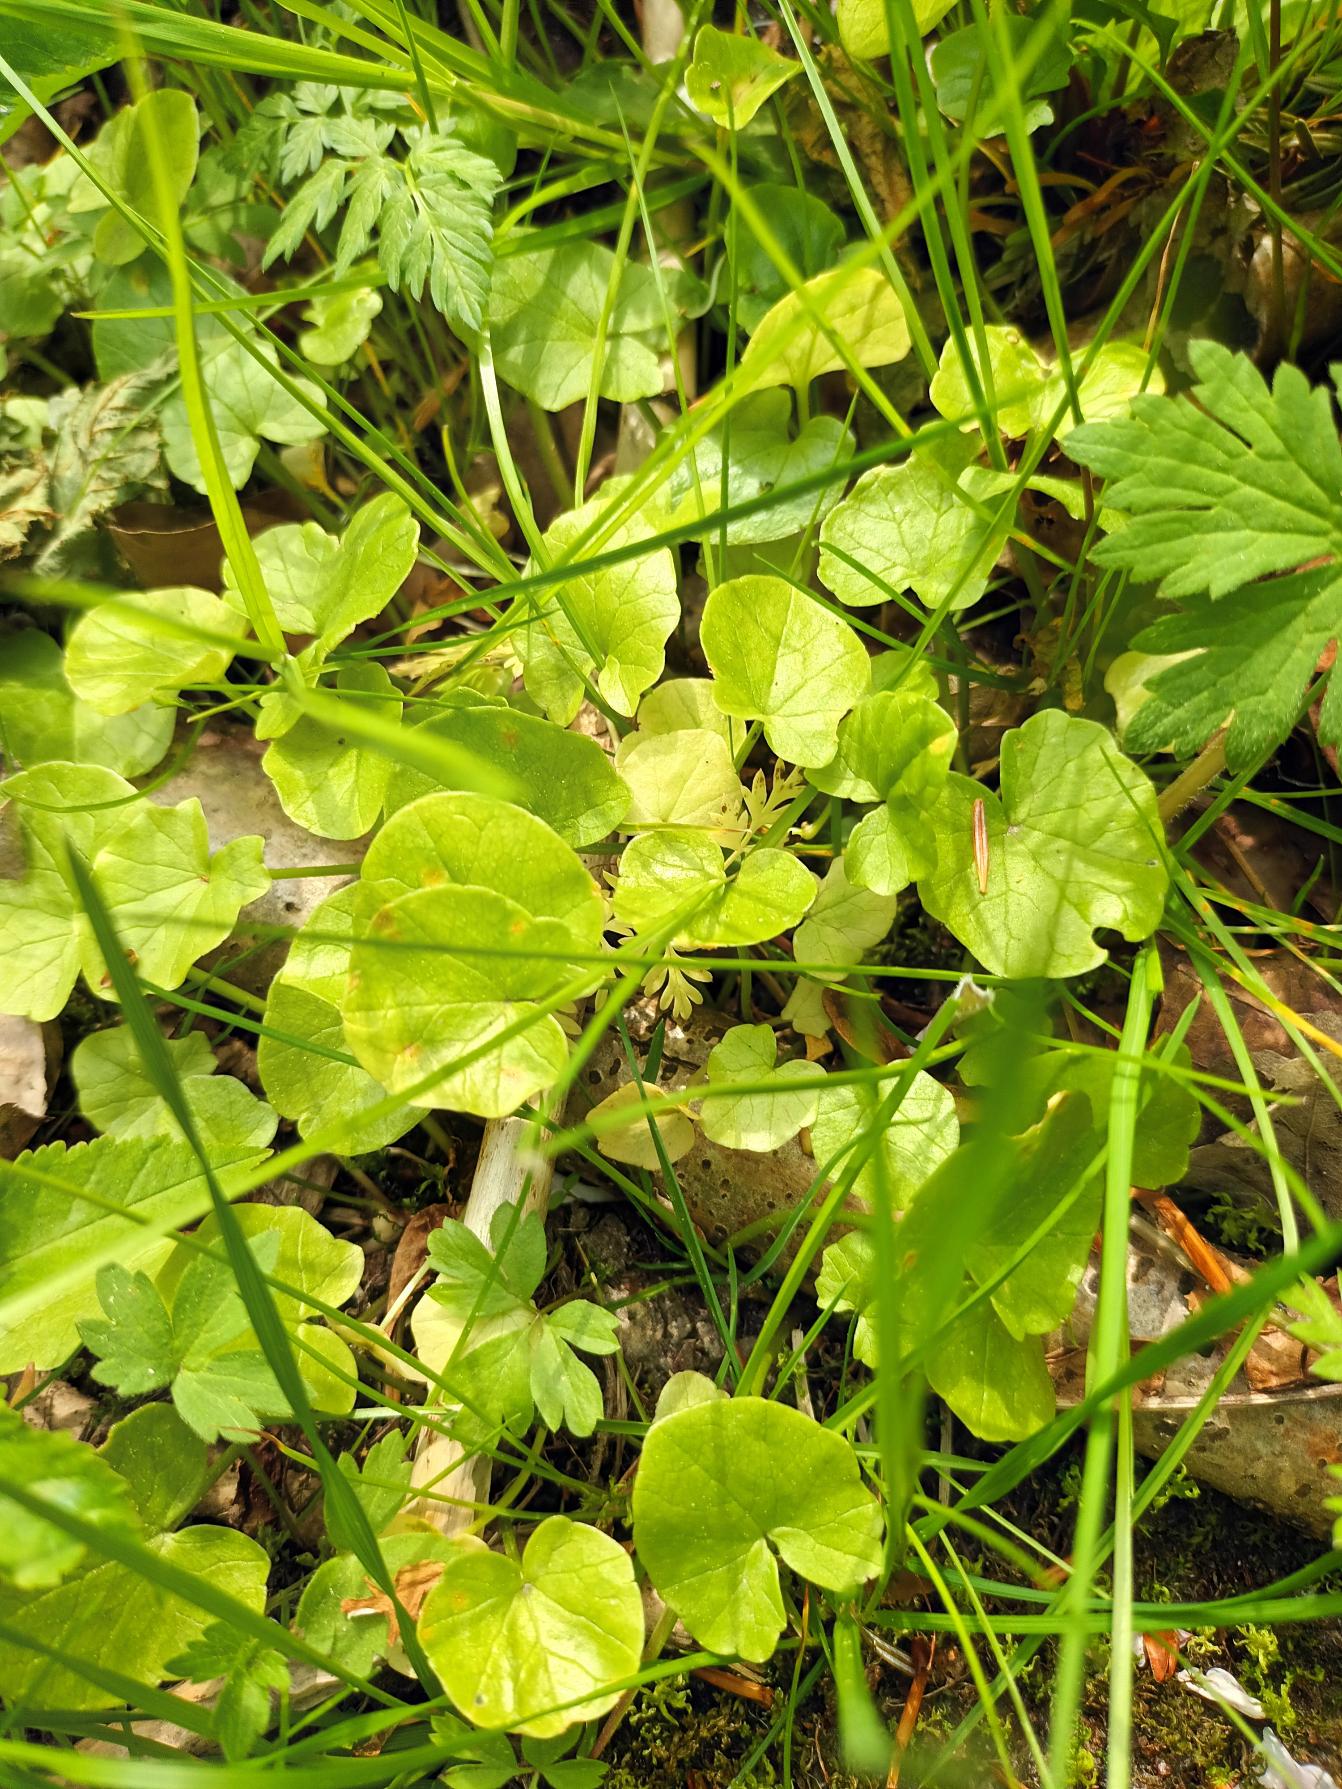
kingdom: Plantae
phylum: Tracheophyta
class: Magnoliopsida
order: Ranunculales
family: Ranunculaceae
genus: Ficaria
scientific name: Ficaria verna
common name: Vorterod
